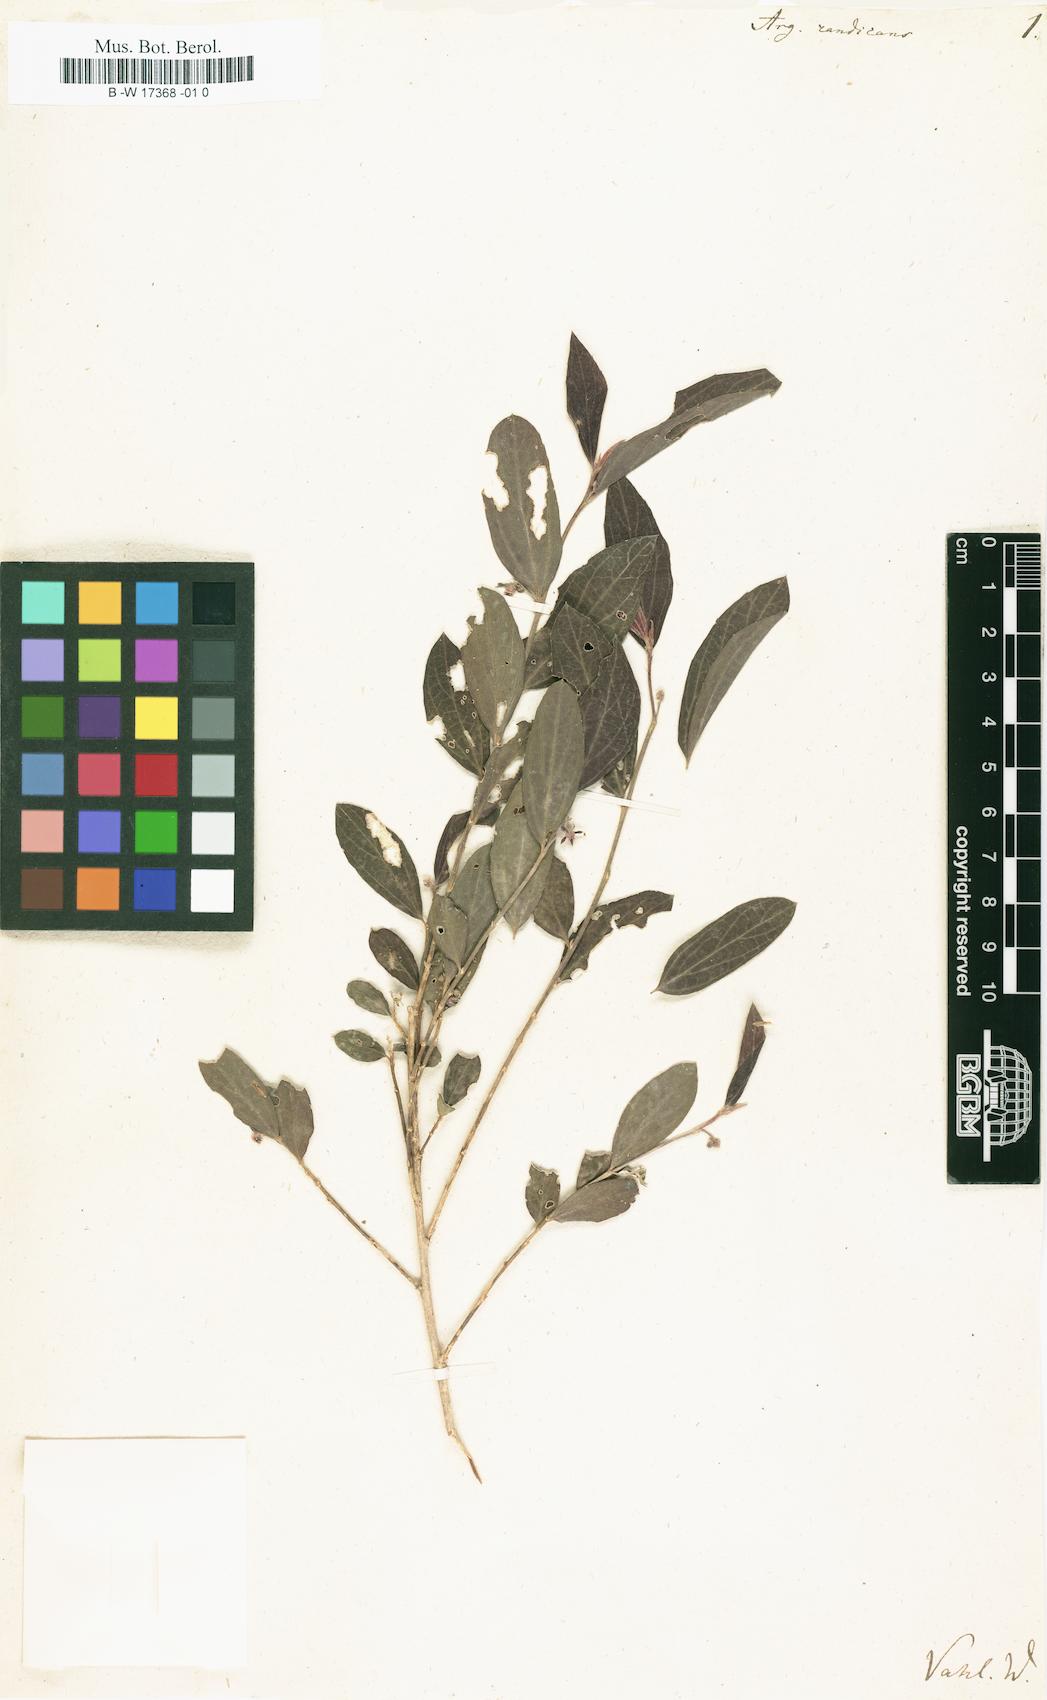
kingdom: Plantae
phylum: Tracheophyta
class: Magnoliopsida
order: Malpighiales
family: Euphorbiaceae
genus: Argythamnia
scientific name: Argythamnia candicans
